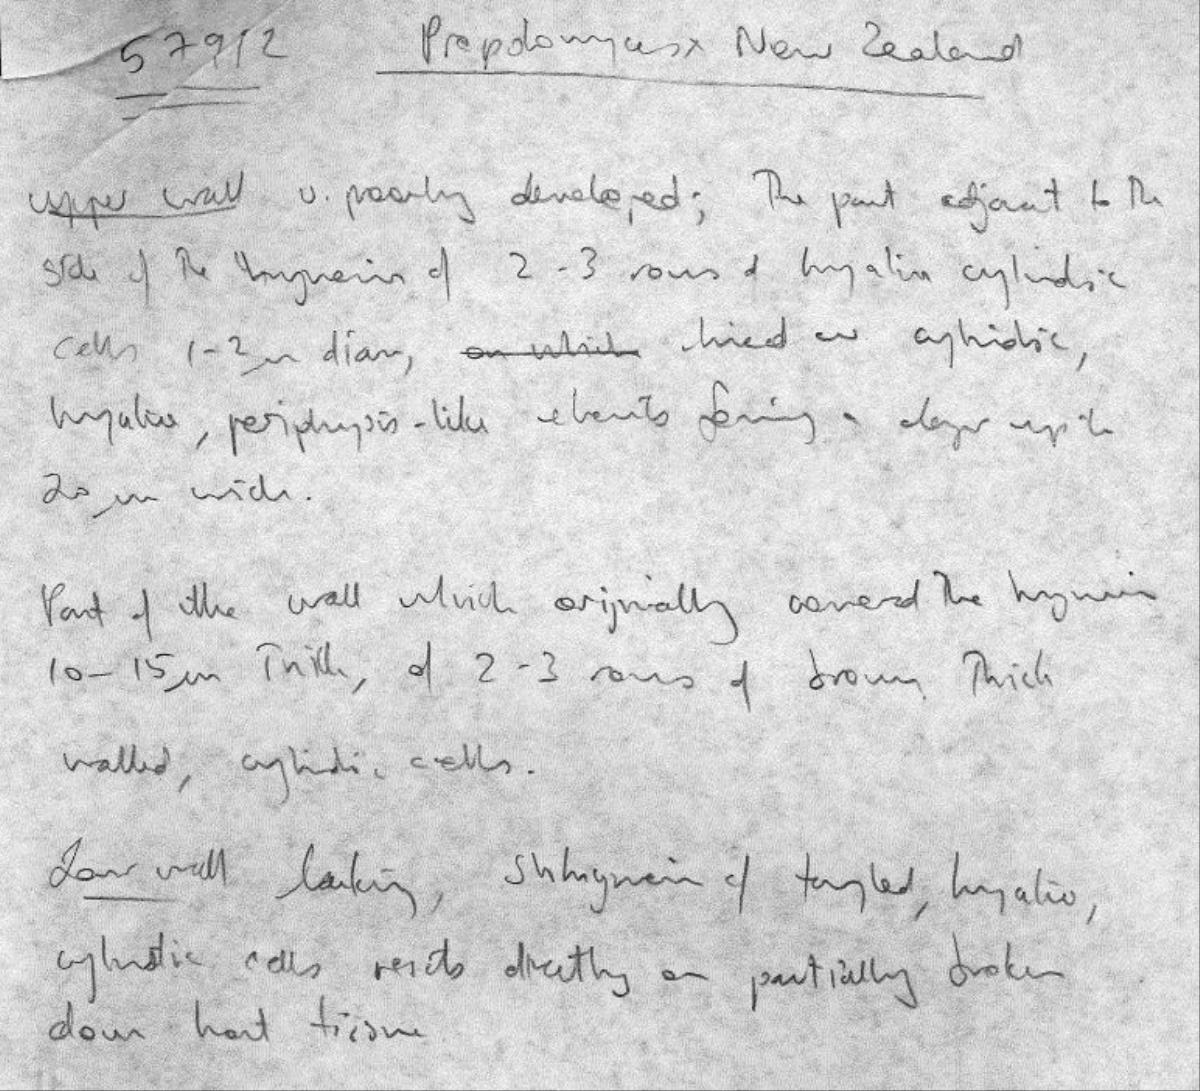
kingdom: Fungi
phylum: Ascomycota
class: Leotiomycetes
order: Chaetomellales
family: Marthamycetaceae
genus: Propolis
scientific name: Propolis farinosa
